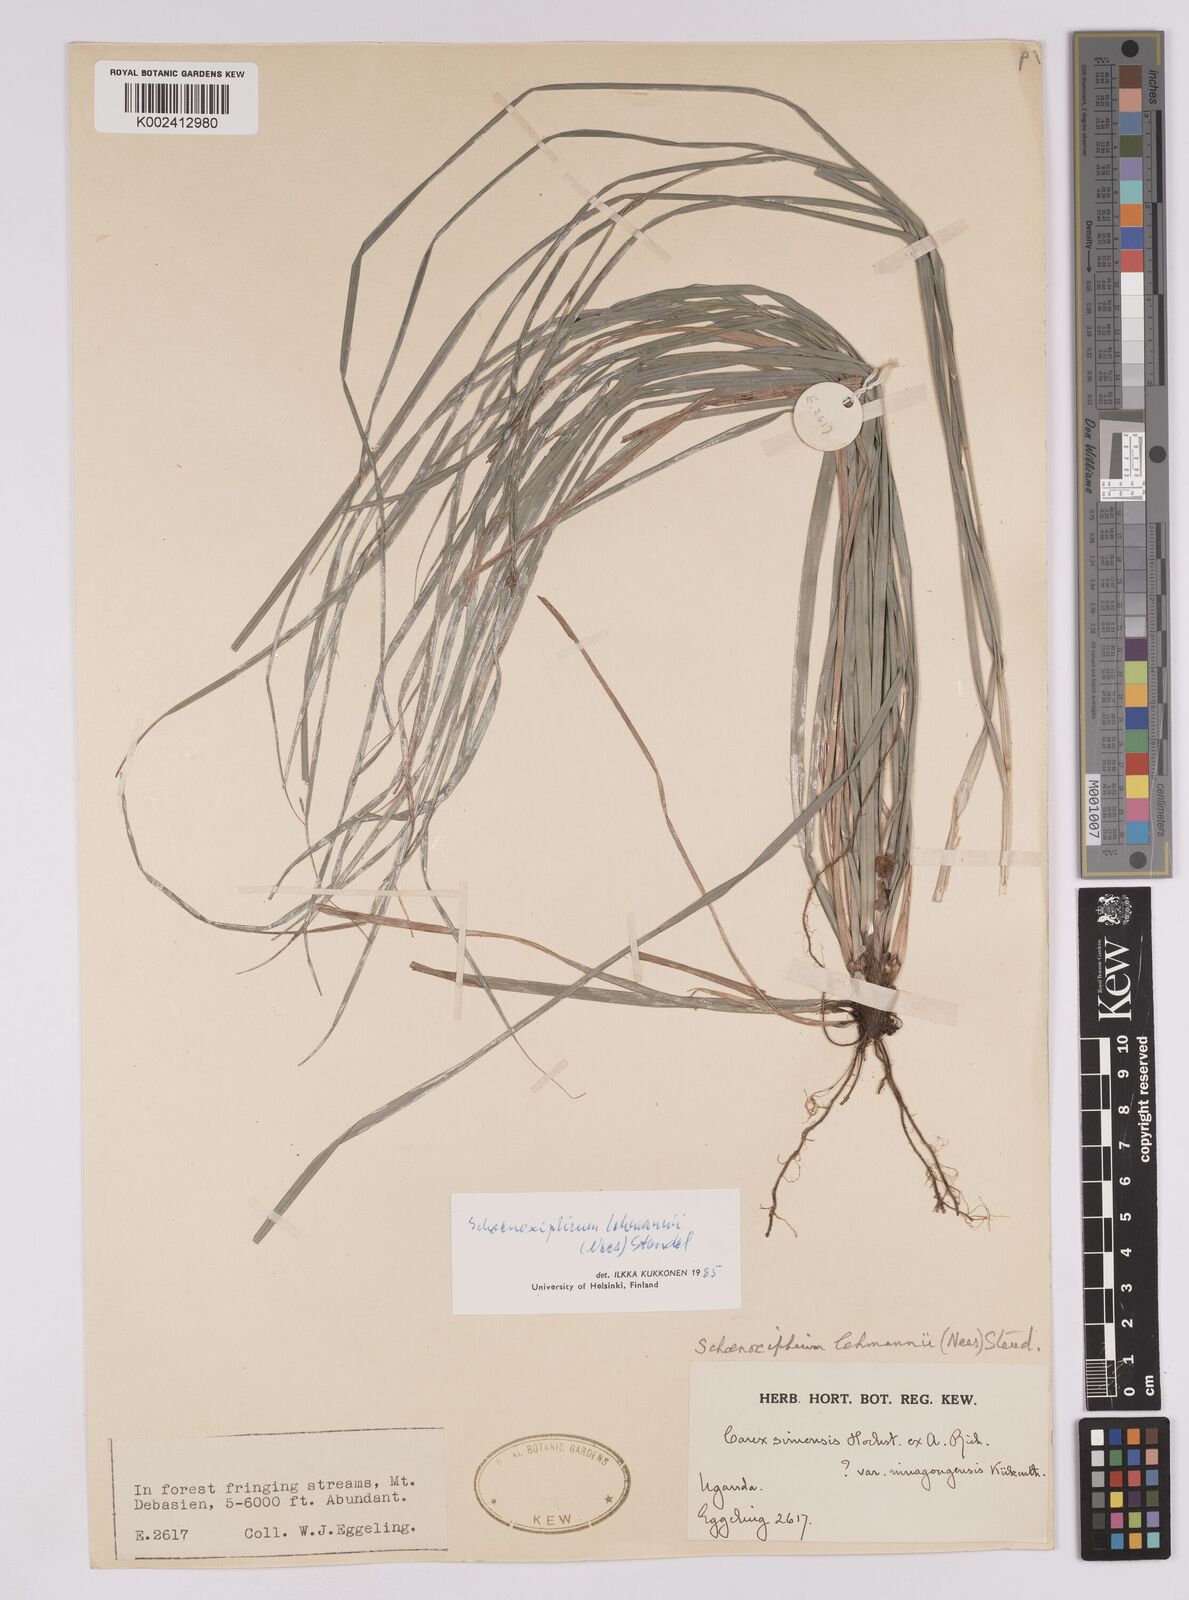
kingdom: Plantae
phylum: Tracheophyta
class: Liliopsida
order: Poales
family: Cyperaceae
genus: Carex
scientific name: Carex uhligii
